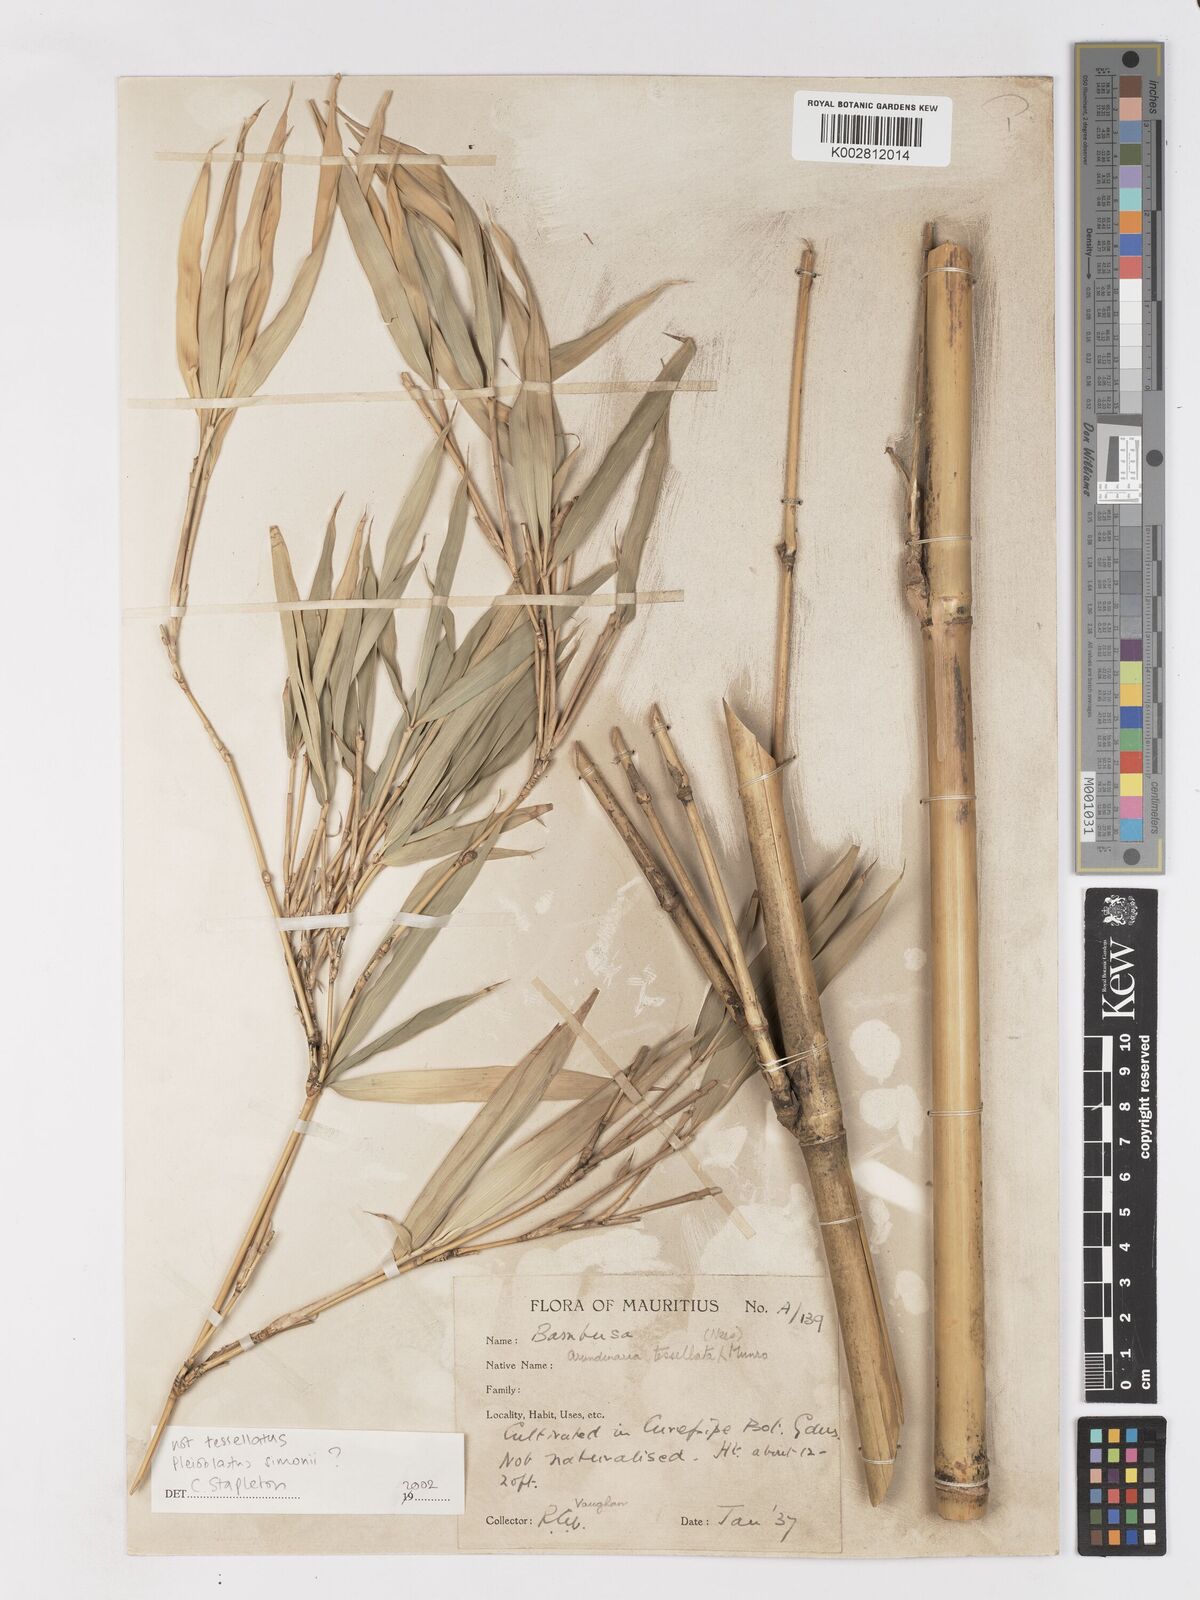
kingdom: Plantae
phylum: Tracheophyta
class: Liliopsida
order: Poales
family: Poaceae
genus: Pleioblastus
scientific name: Pleioblastus simonii
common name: Simon bamboo
